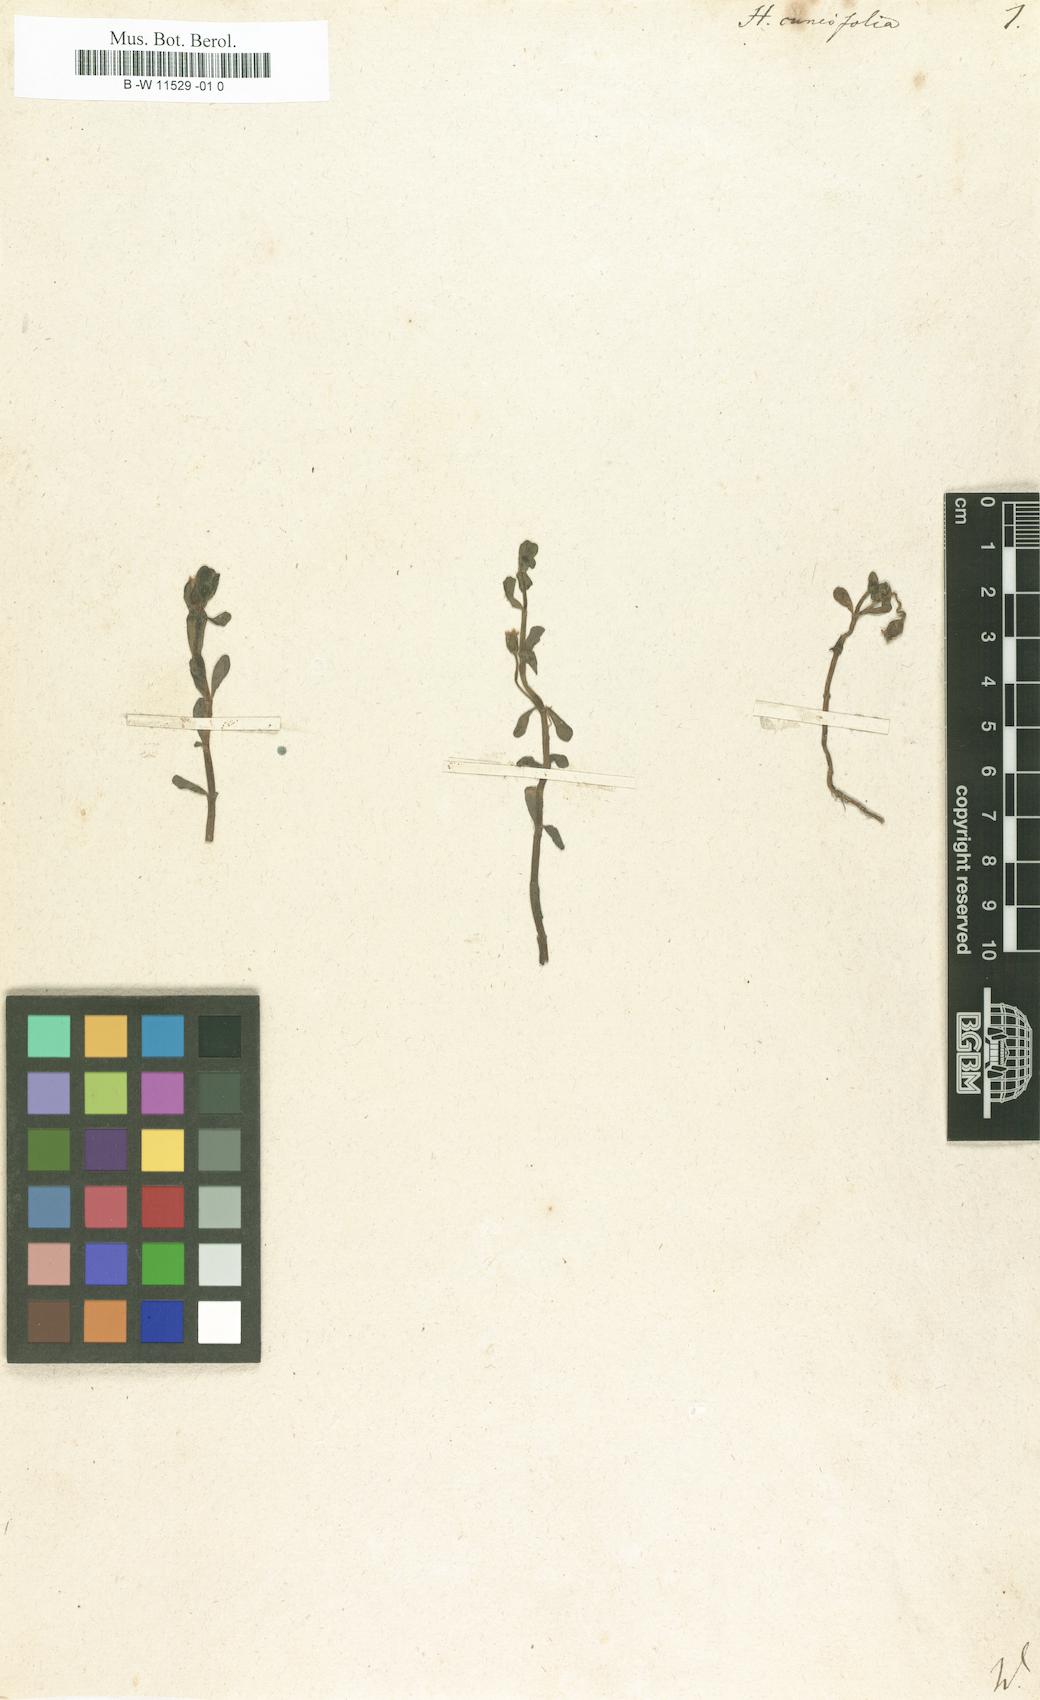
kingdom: Plantae
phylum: Tracheophyta
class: Magnoliopsida
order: Lamiales
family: Scrophulariaceae
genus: Herpestes
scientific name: Herpestes
